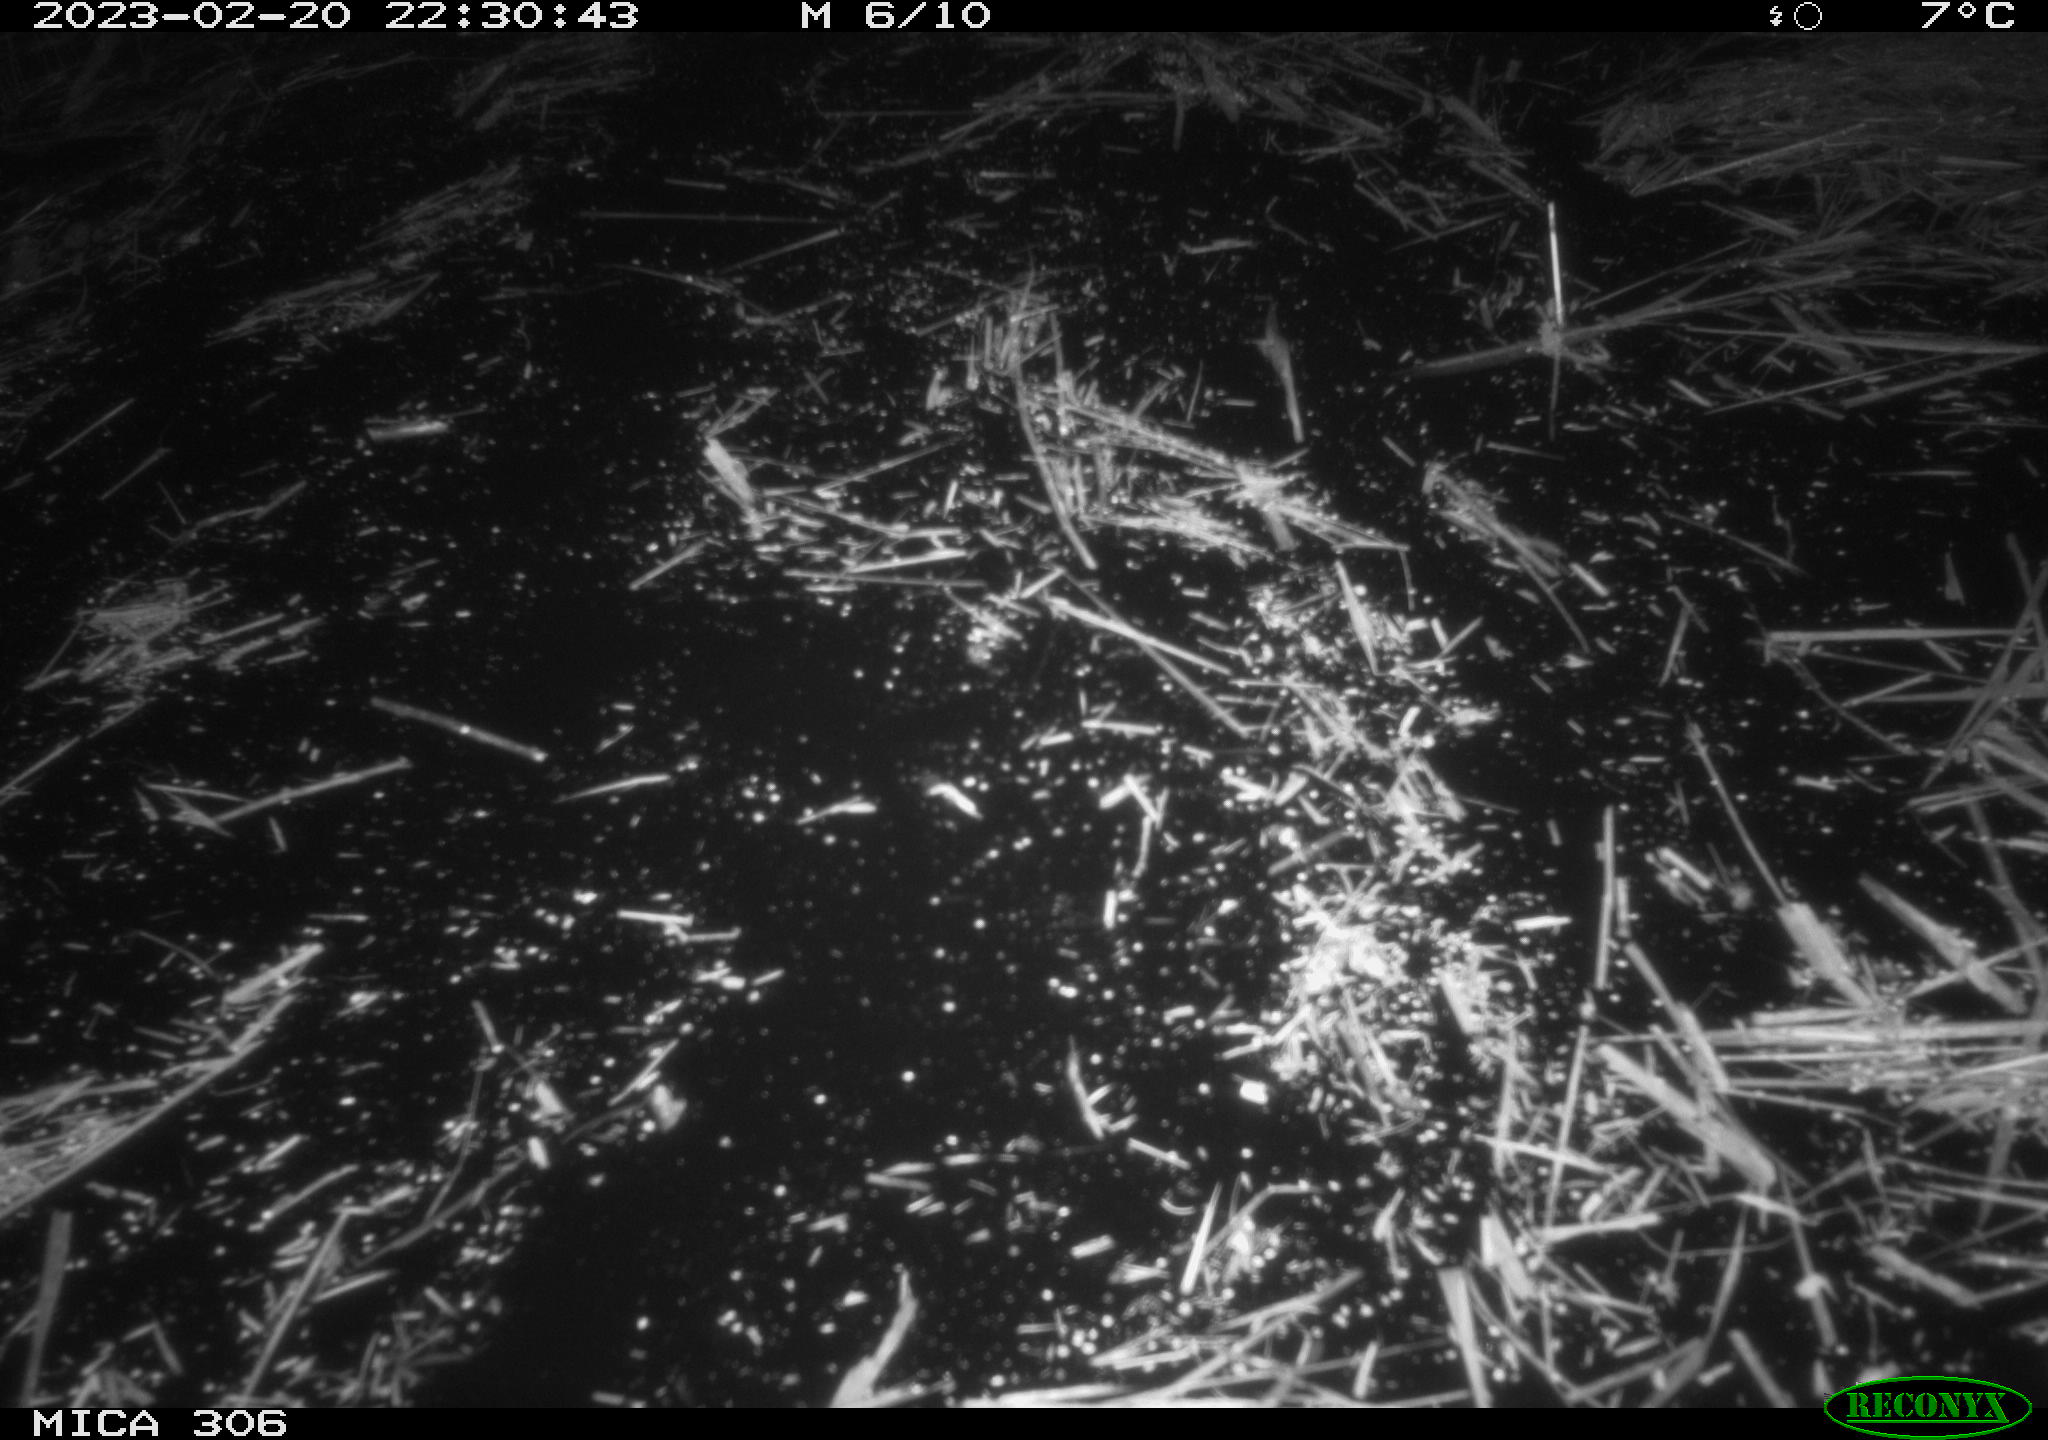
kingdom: Animalia
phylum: Chordata
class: Mammalia
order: Rodentia
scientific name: Rodentia
